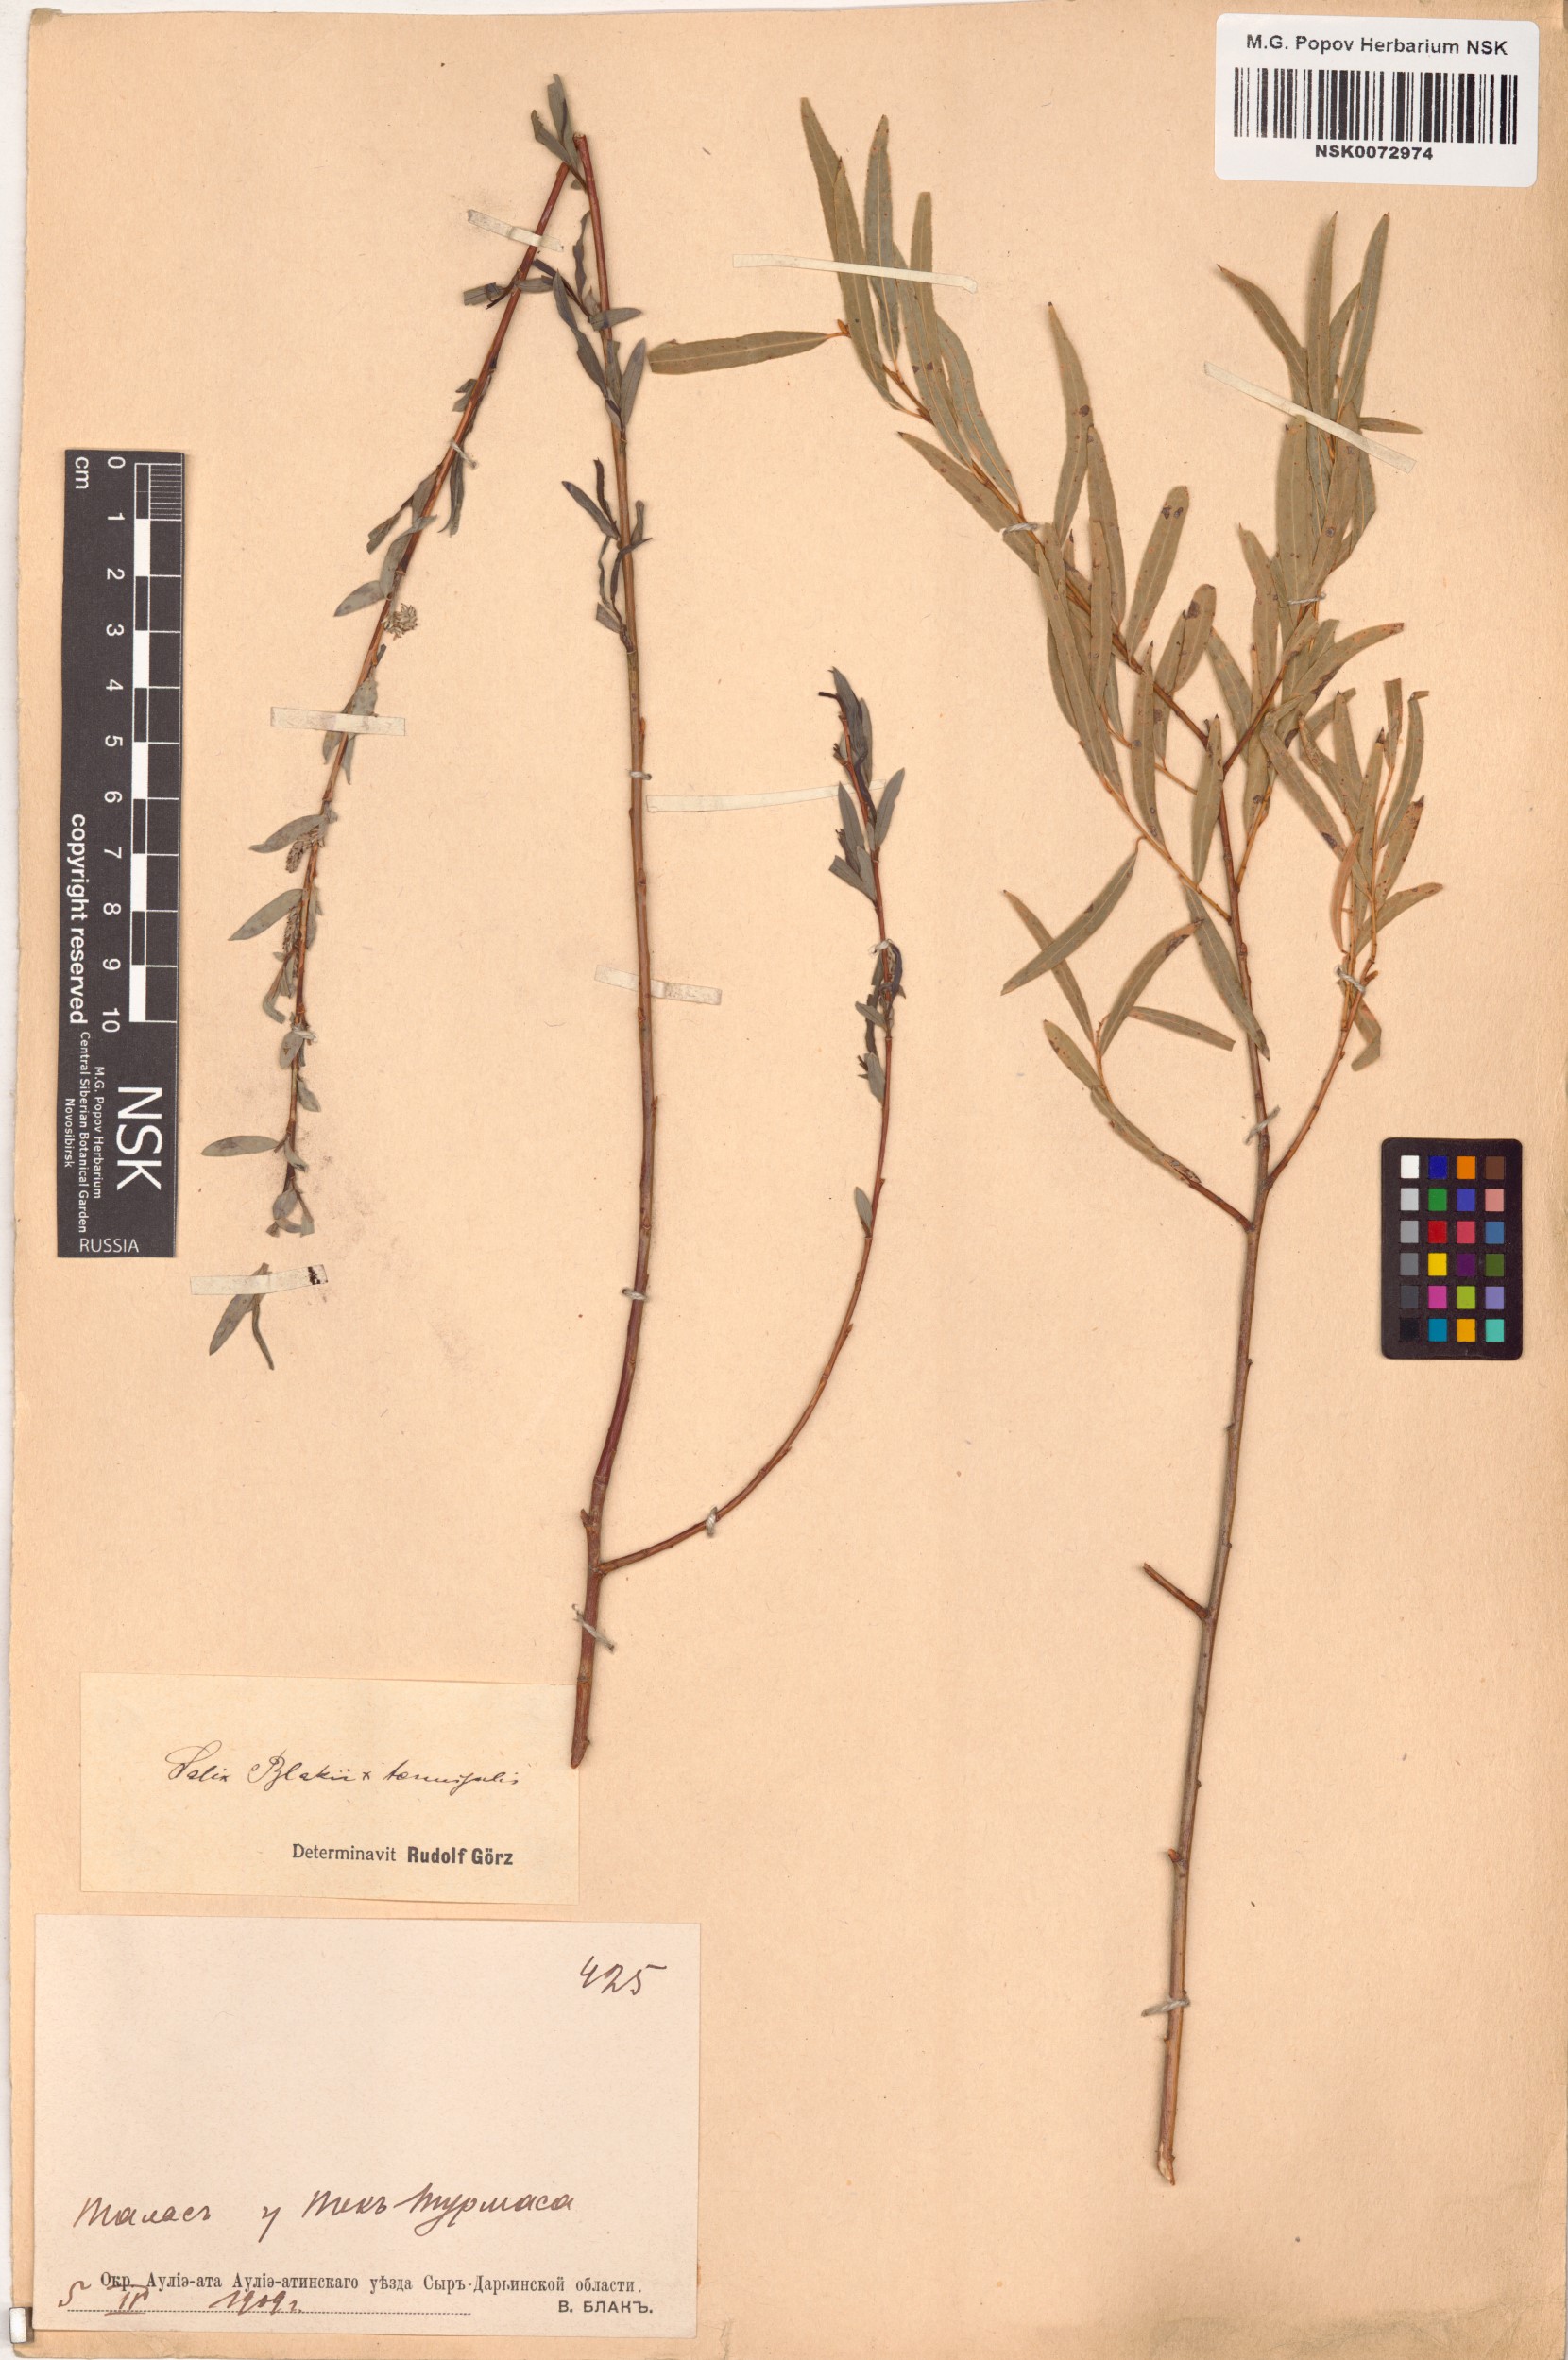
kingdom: Plantae
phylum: Tracheophyta
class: Magnoliopsida
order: Malpighiales
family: Salicaceae
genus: Salix
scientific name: Salix
